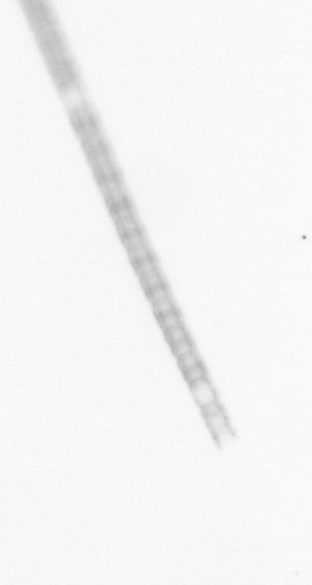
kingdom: Chromista
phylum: Ochrophyta
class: Bacillariophyceae
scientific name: Bacillariophyceae
